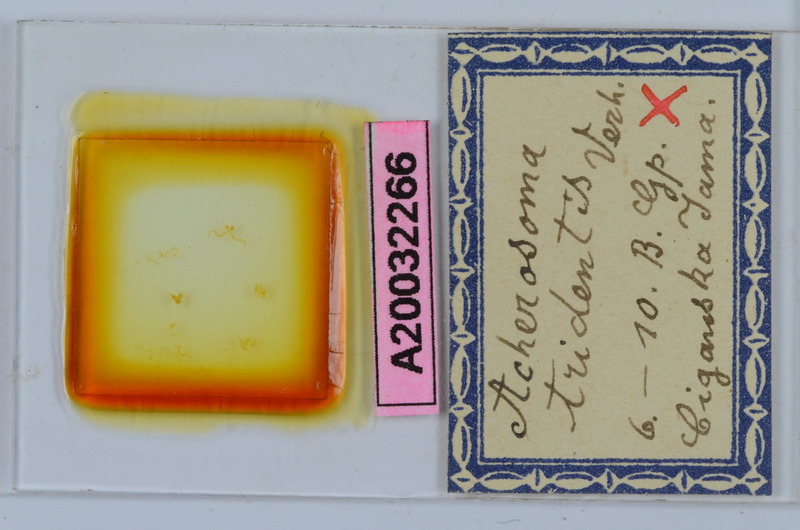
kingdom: Animalia
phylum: Arthropoda
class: Diplopoda
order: Chordeumatida
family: Anthogonidae
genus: Haasia
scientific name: Haasia tridentis
